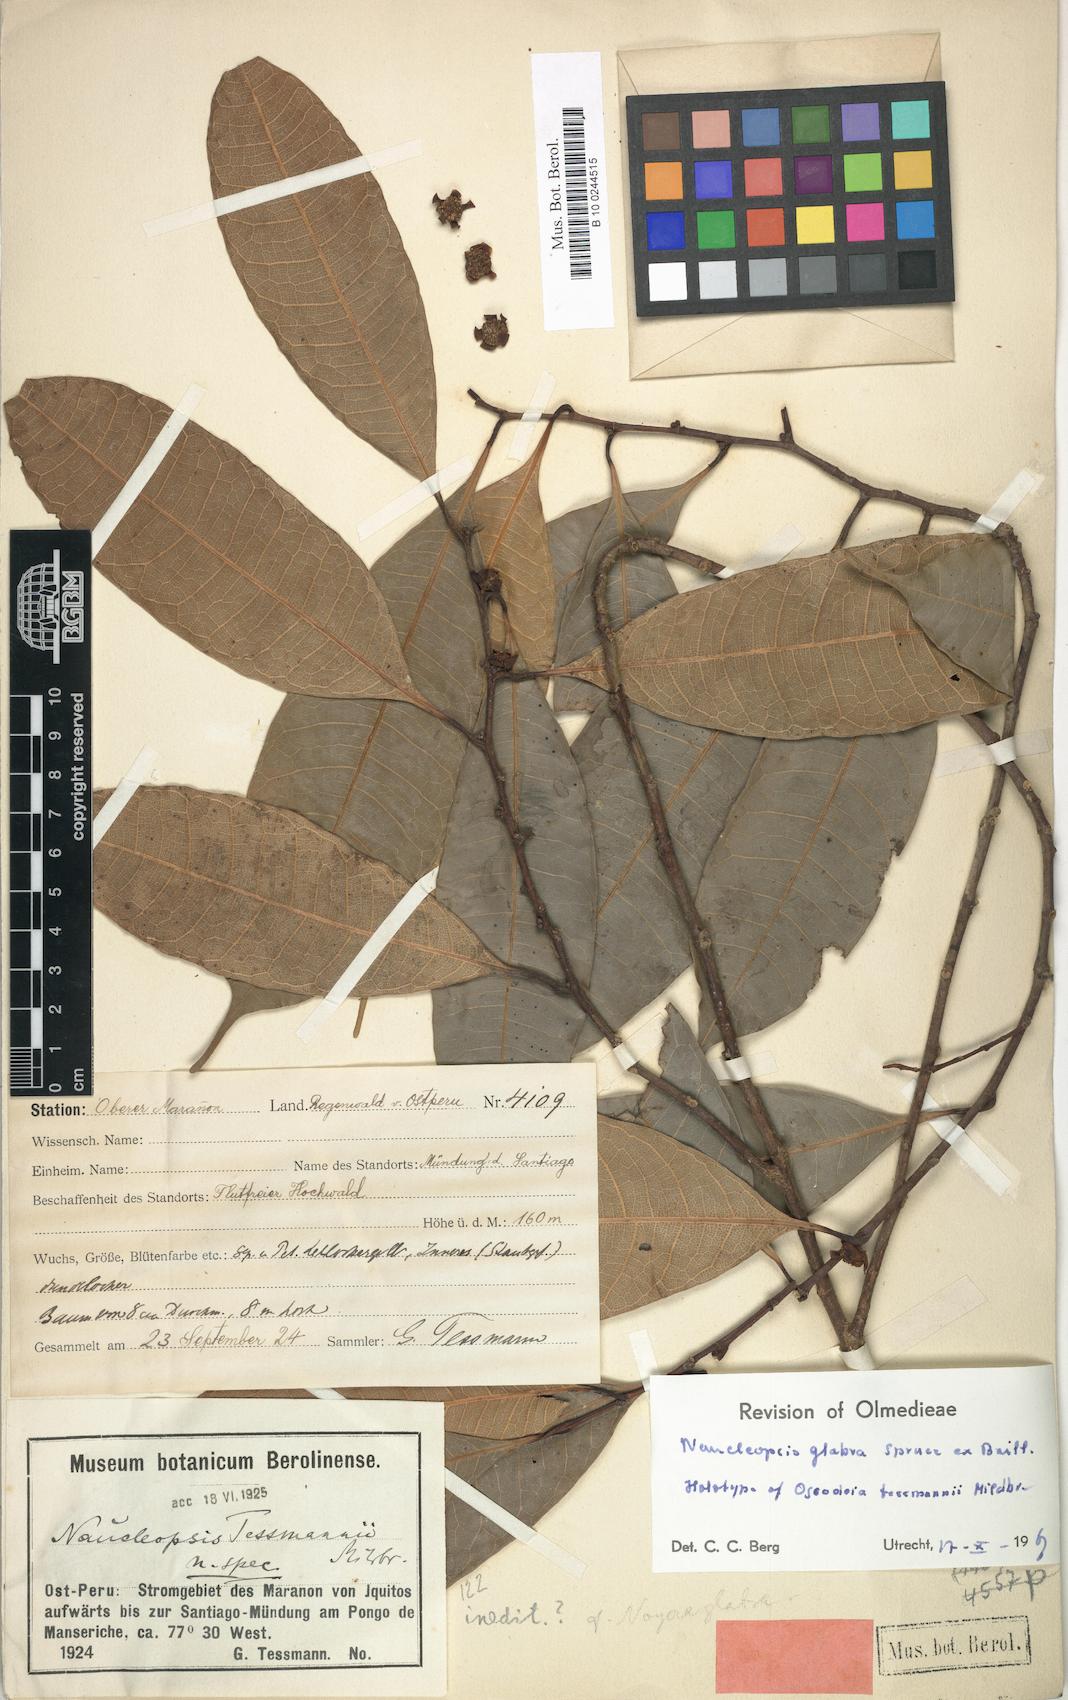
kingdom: Plantae
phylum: Tracheophyta
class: Magnoliopsida
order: Rosales
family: Moraceae
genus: Naucleopsis
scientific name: Naucleopsis glabra
